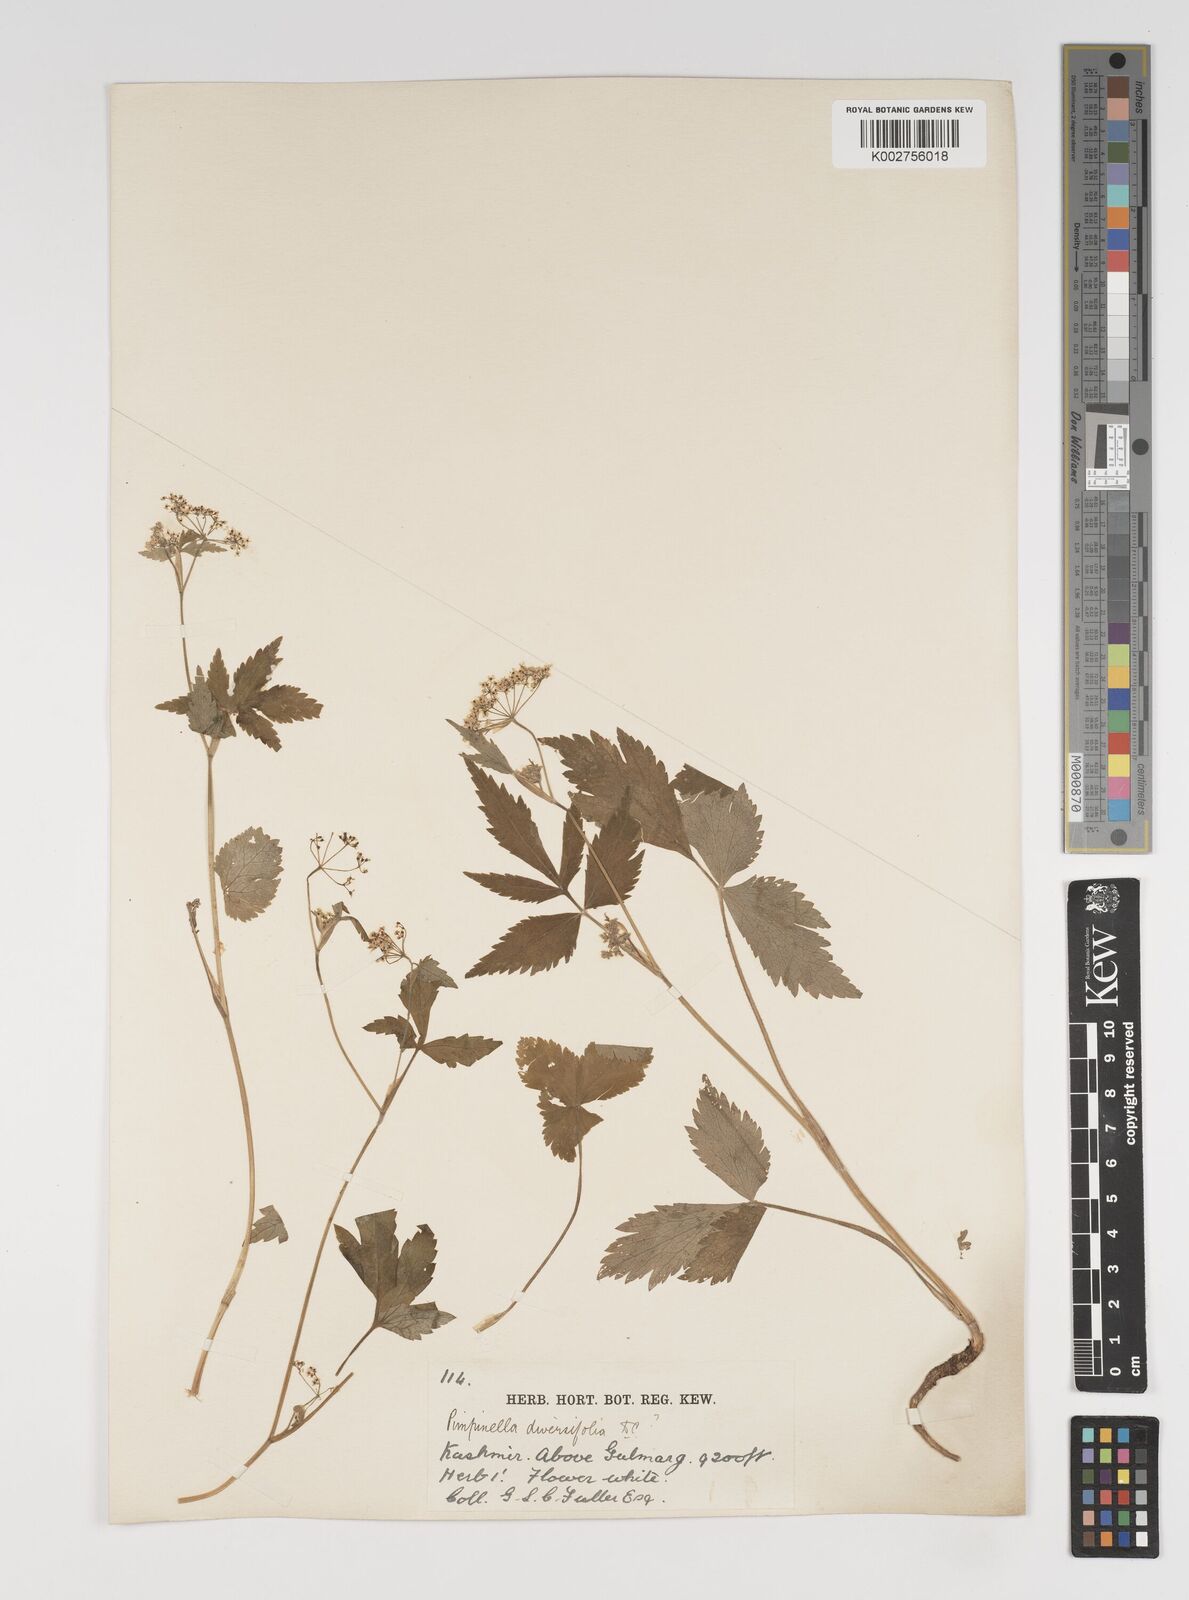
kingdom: Plantae
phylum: Tracheophyta
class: Magnoliopsida
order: Apiales
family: Apiaceae
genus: Pimpinella
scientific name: Pimpinella diversifolia
